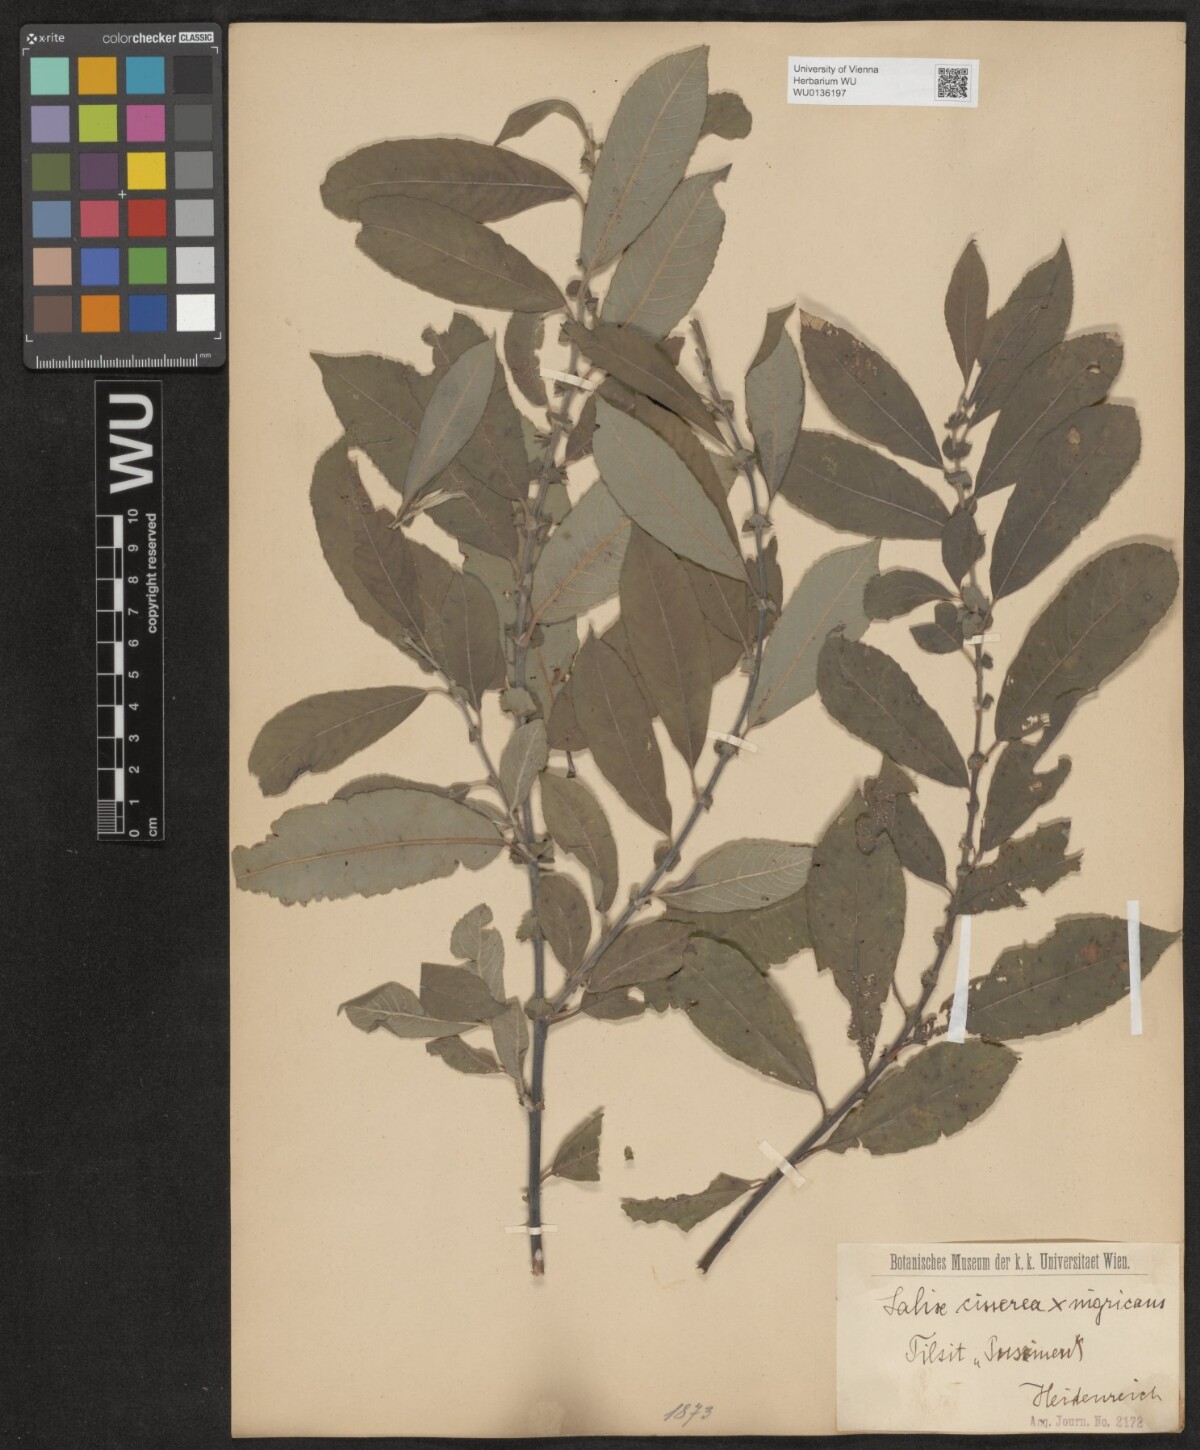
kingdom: Plantae
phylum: Tracheophyta
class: Magnoliopsida
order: Malpighiales
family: Salicaceae
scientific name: Salicaceae
